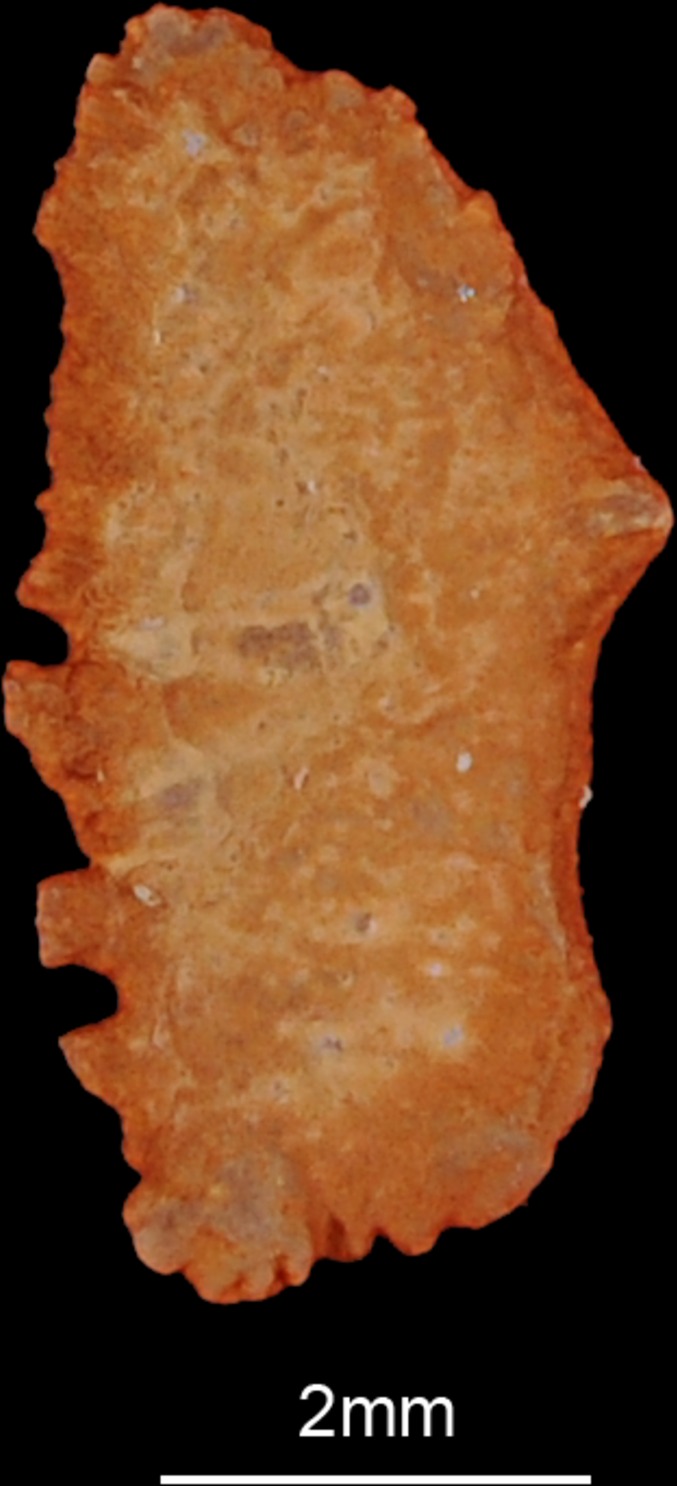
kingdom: Animalia
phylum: Chordata
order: Mugiliformes
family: Mugilidae
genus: Planiliza
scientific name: Planiliza abu
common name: Abu mullet
